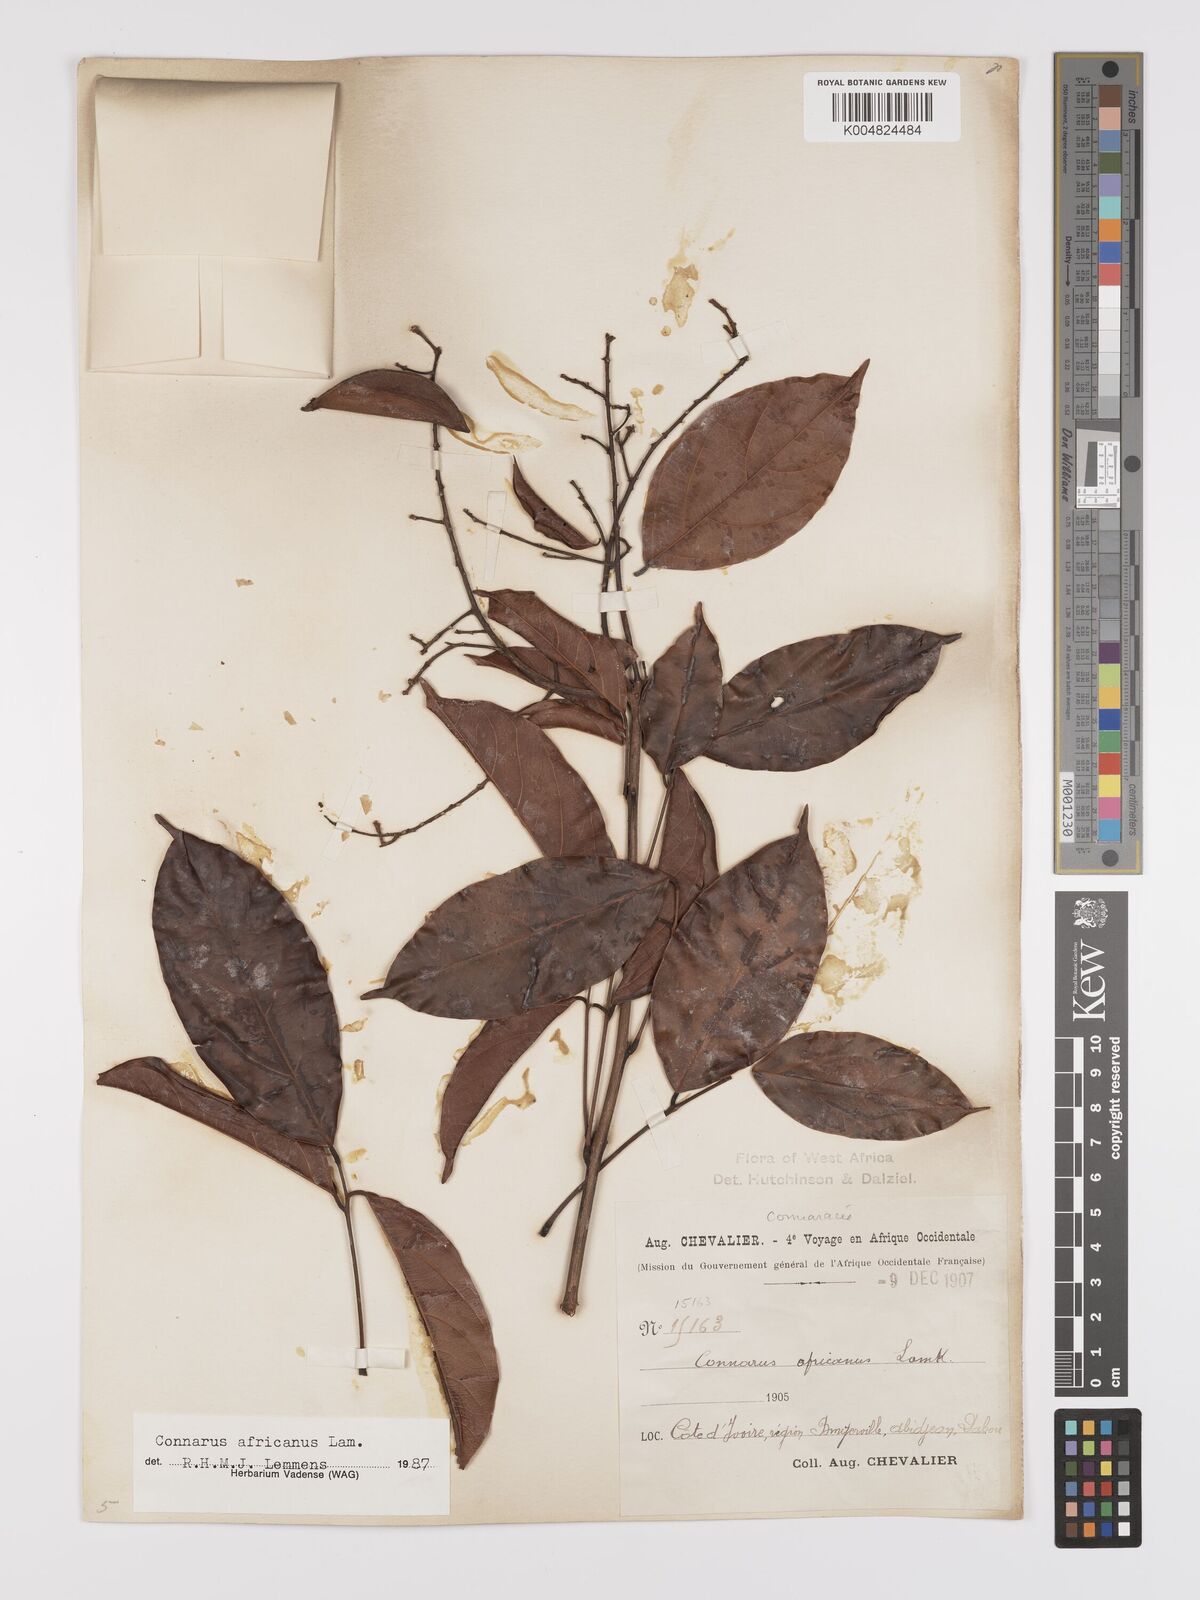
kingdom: Plantae
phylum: Tracheophyta
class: Magnoliopsida
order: Oxalidales
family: Connaraceae
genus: Connarus
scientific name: Connarus africanus
